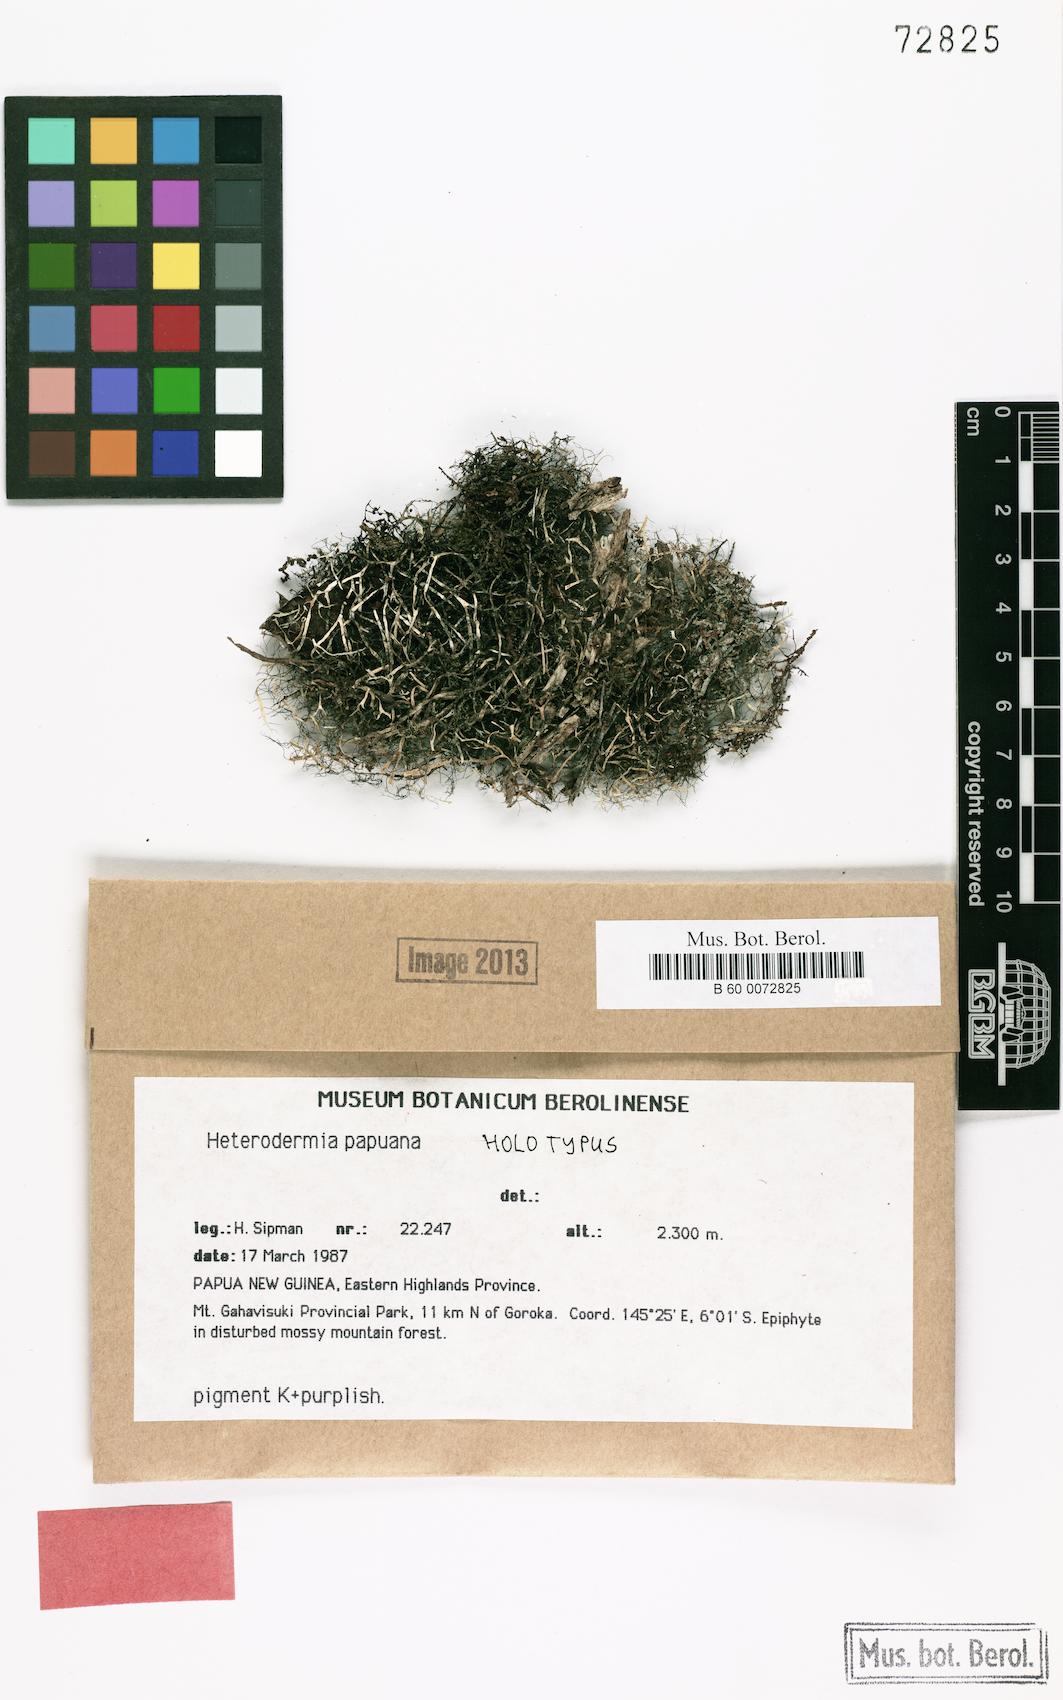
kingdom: Fungi
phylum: Ascomycota
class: Lecanoromycetes
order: Caliciales
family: Physciaceae
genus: Heterodermia
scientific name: Heterodermia papuana
